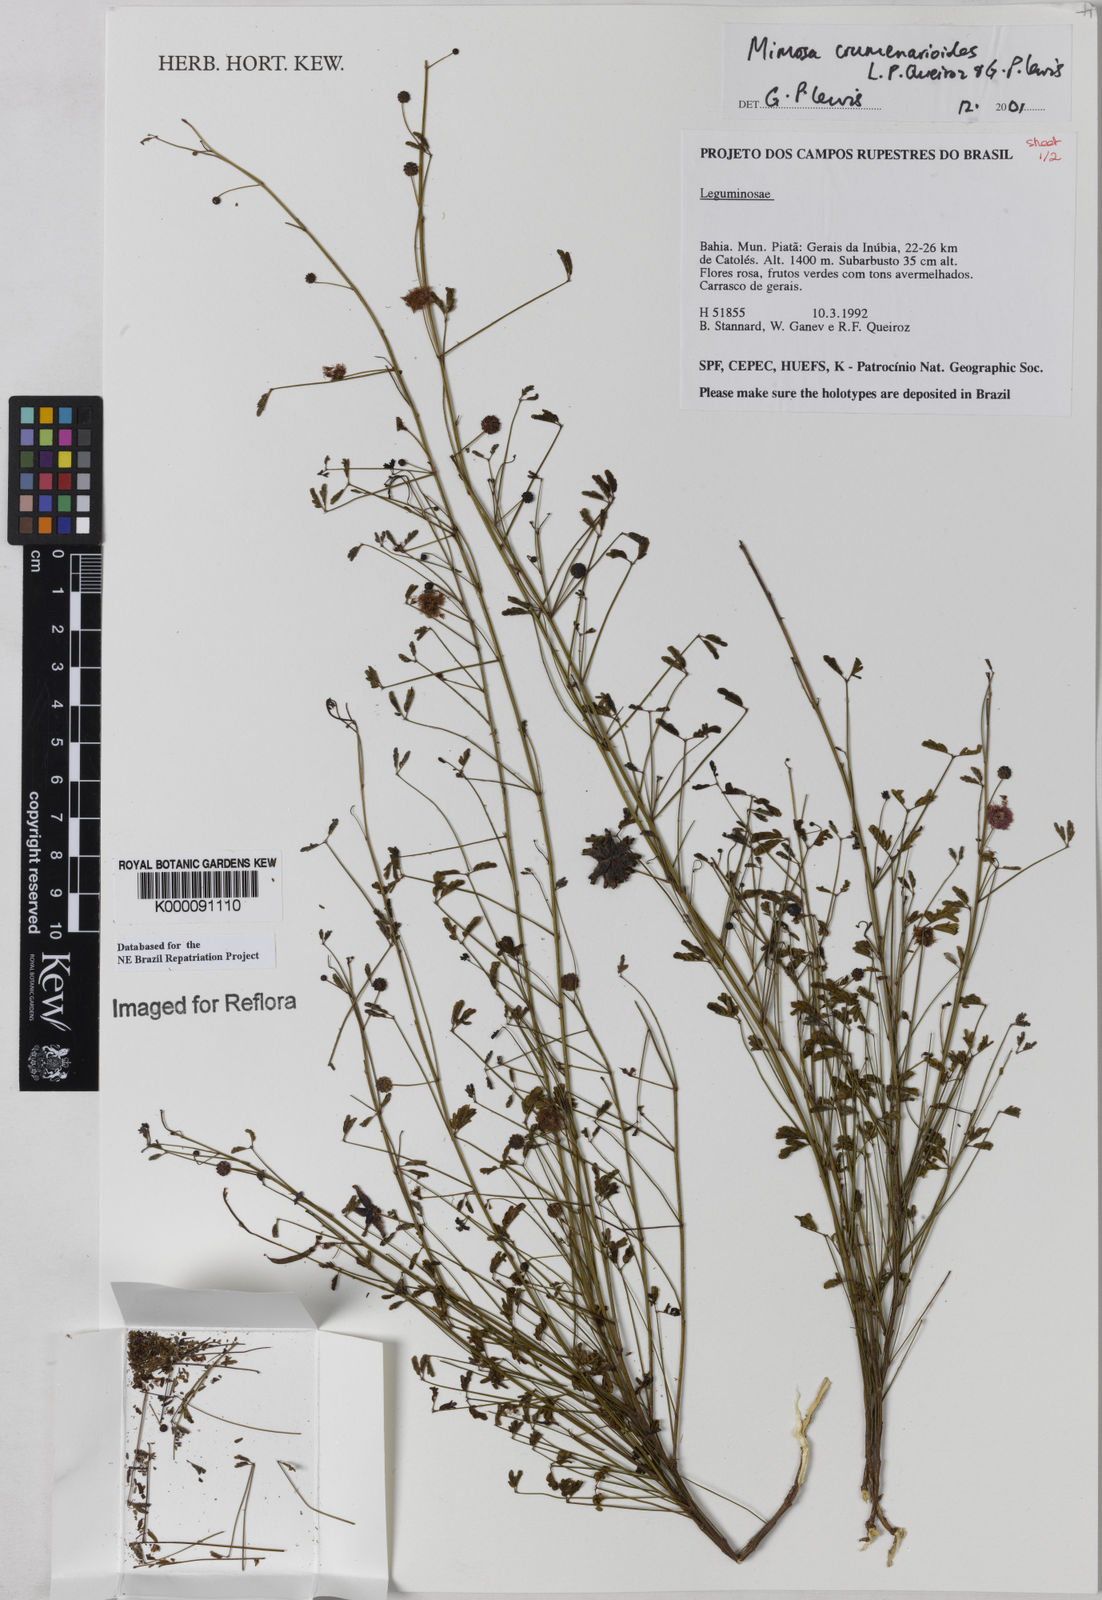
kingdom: Plantae
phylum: Tracheophyta
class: Magnoliopsida
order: Fabales
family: Fabaceae
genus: Mimosa
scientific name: Mimosa crumenarioides
